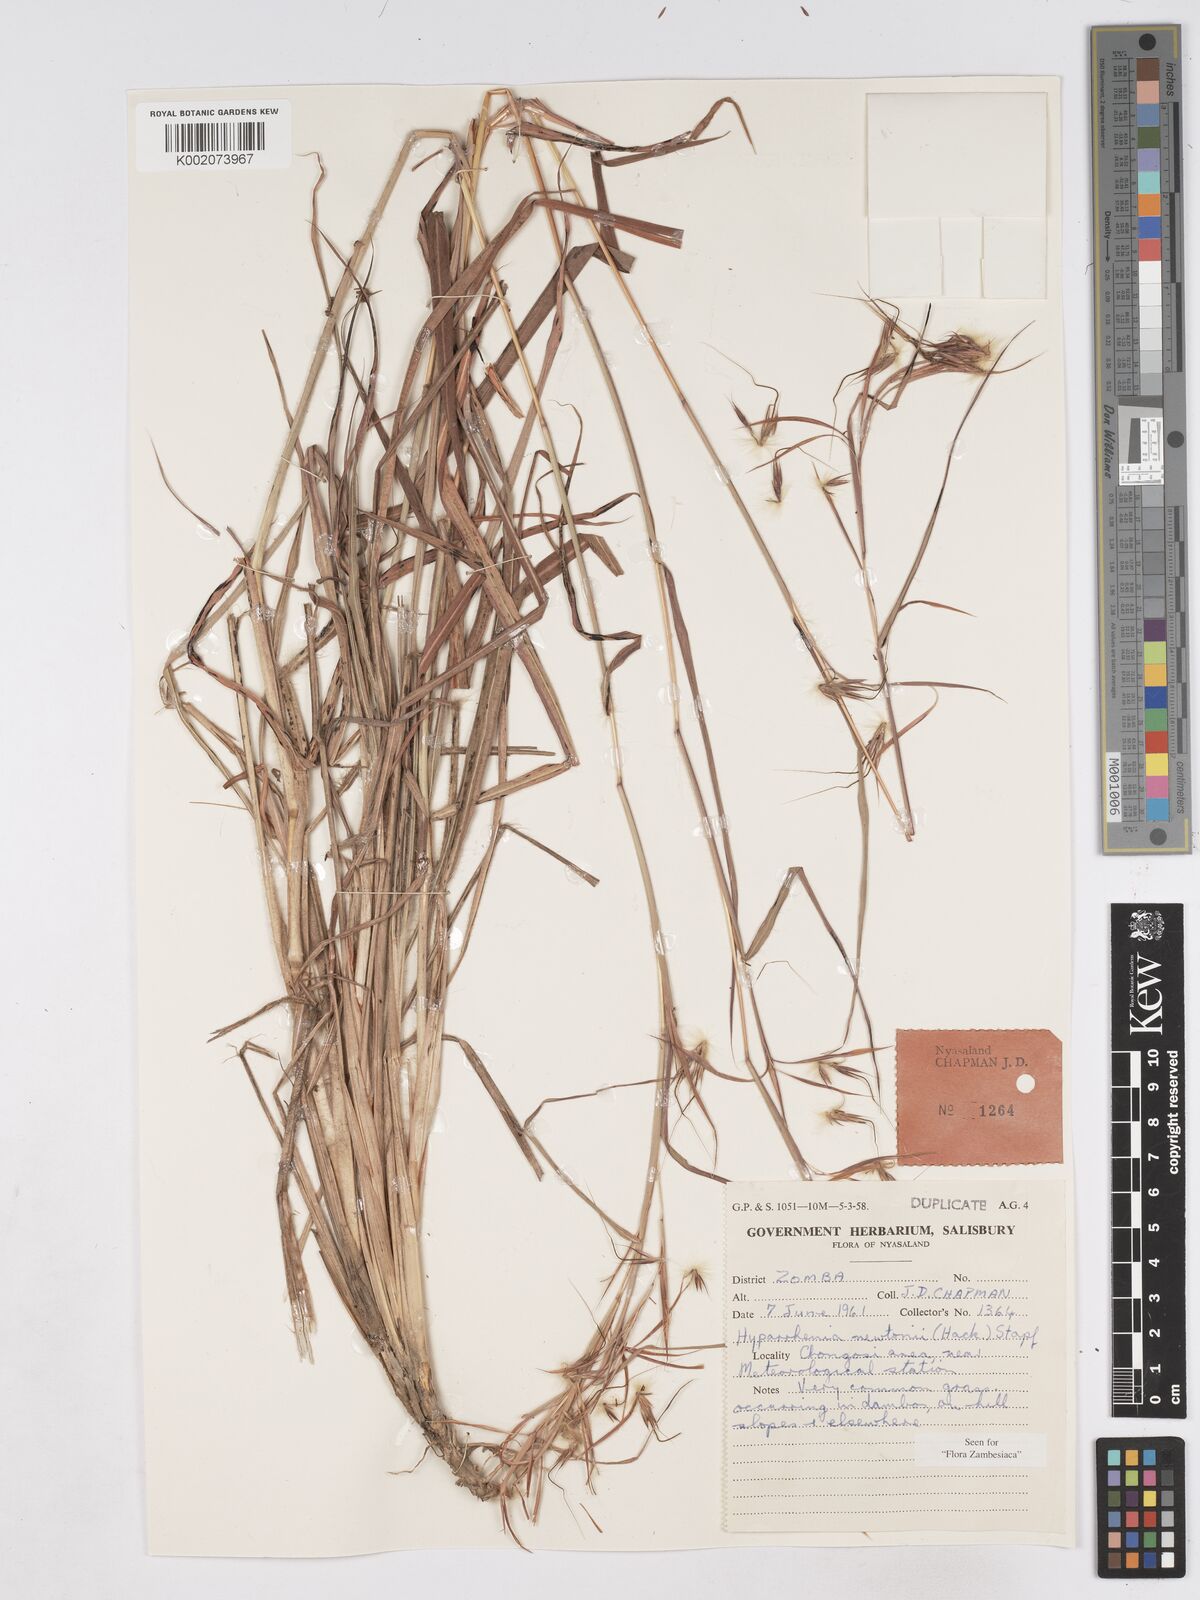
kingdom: Plantae
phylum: Tracheophyta
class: Liliopsida
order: Poales
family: Poaceae
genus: Hyparrhenia
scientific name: Hyparrhenia newtonii
